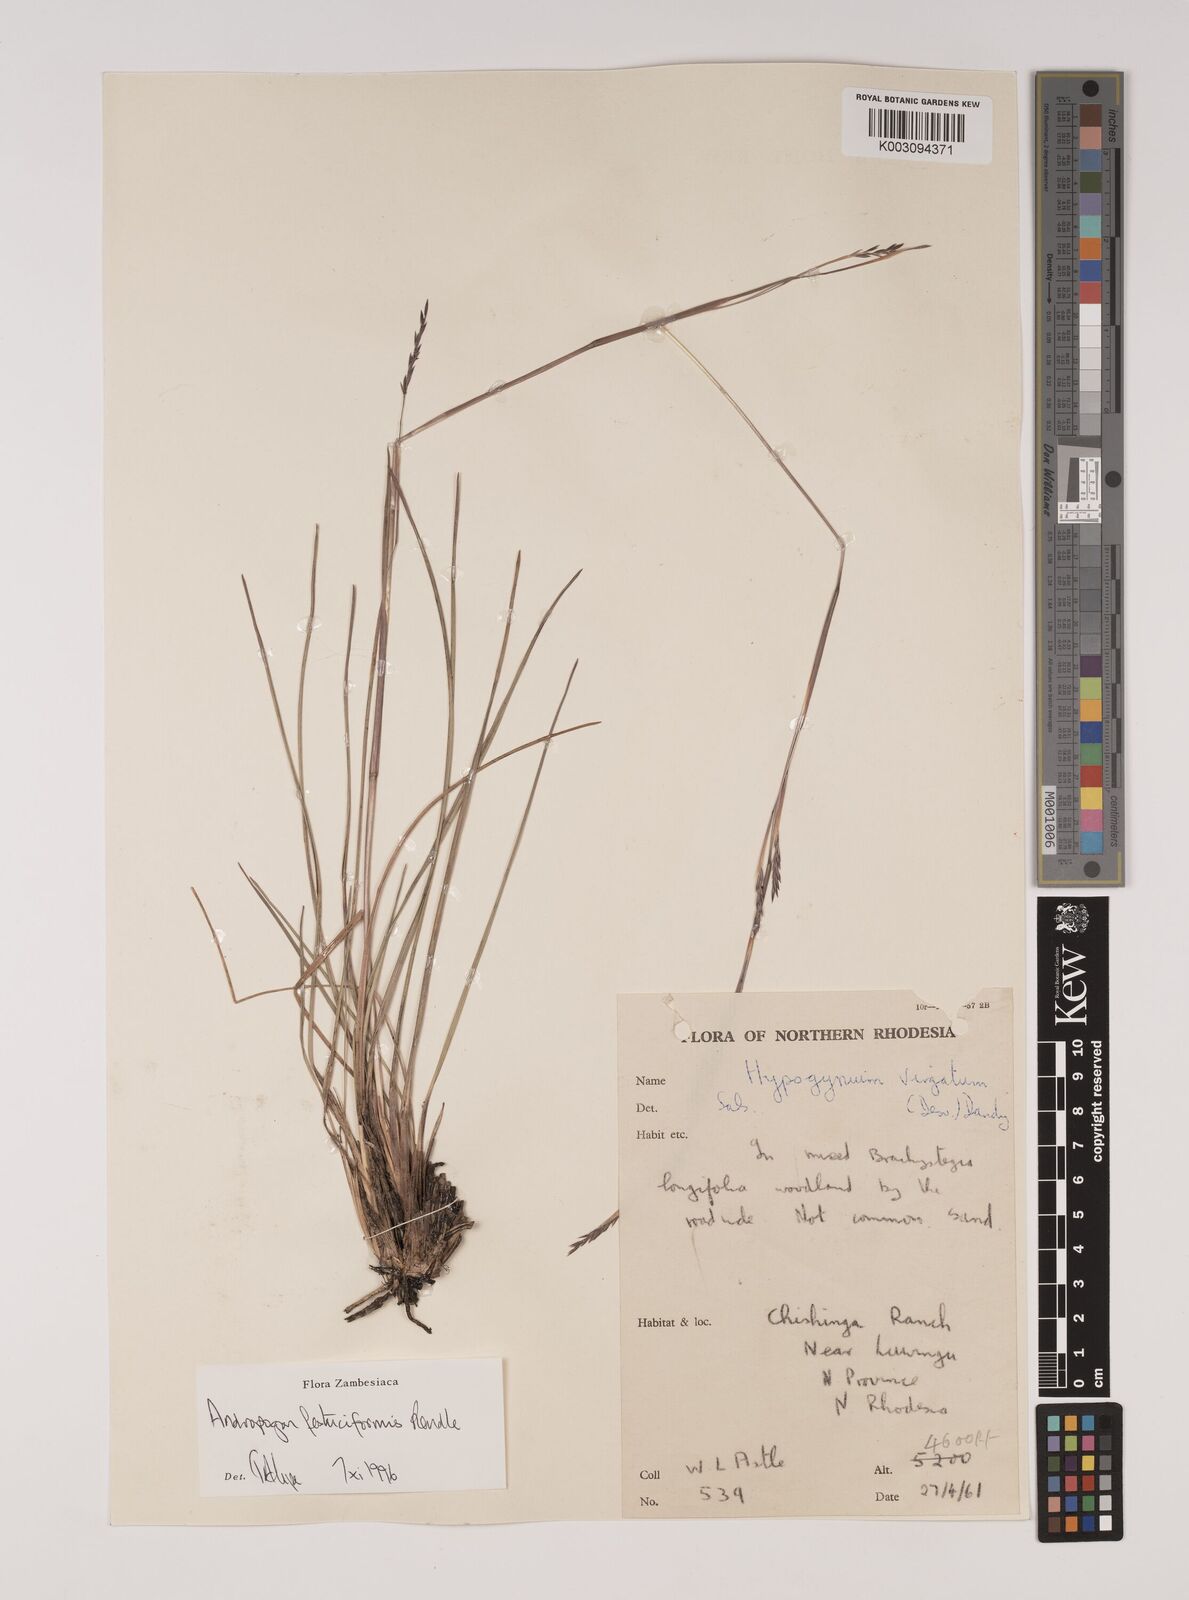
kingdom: Plantae
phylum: Tracheophyta
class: Liliopsida
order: Poales
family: Poaceae
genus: Andropogon
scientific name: Andropogon festuciformis
